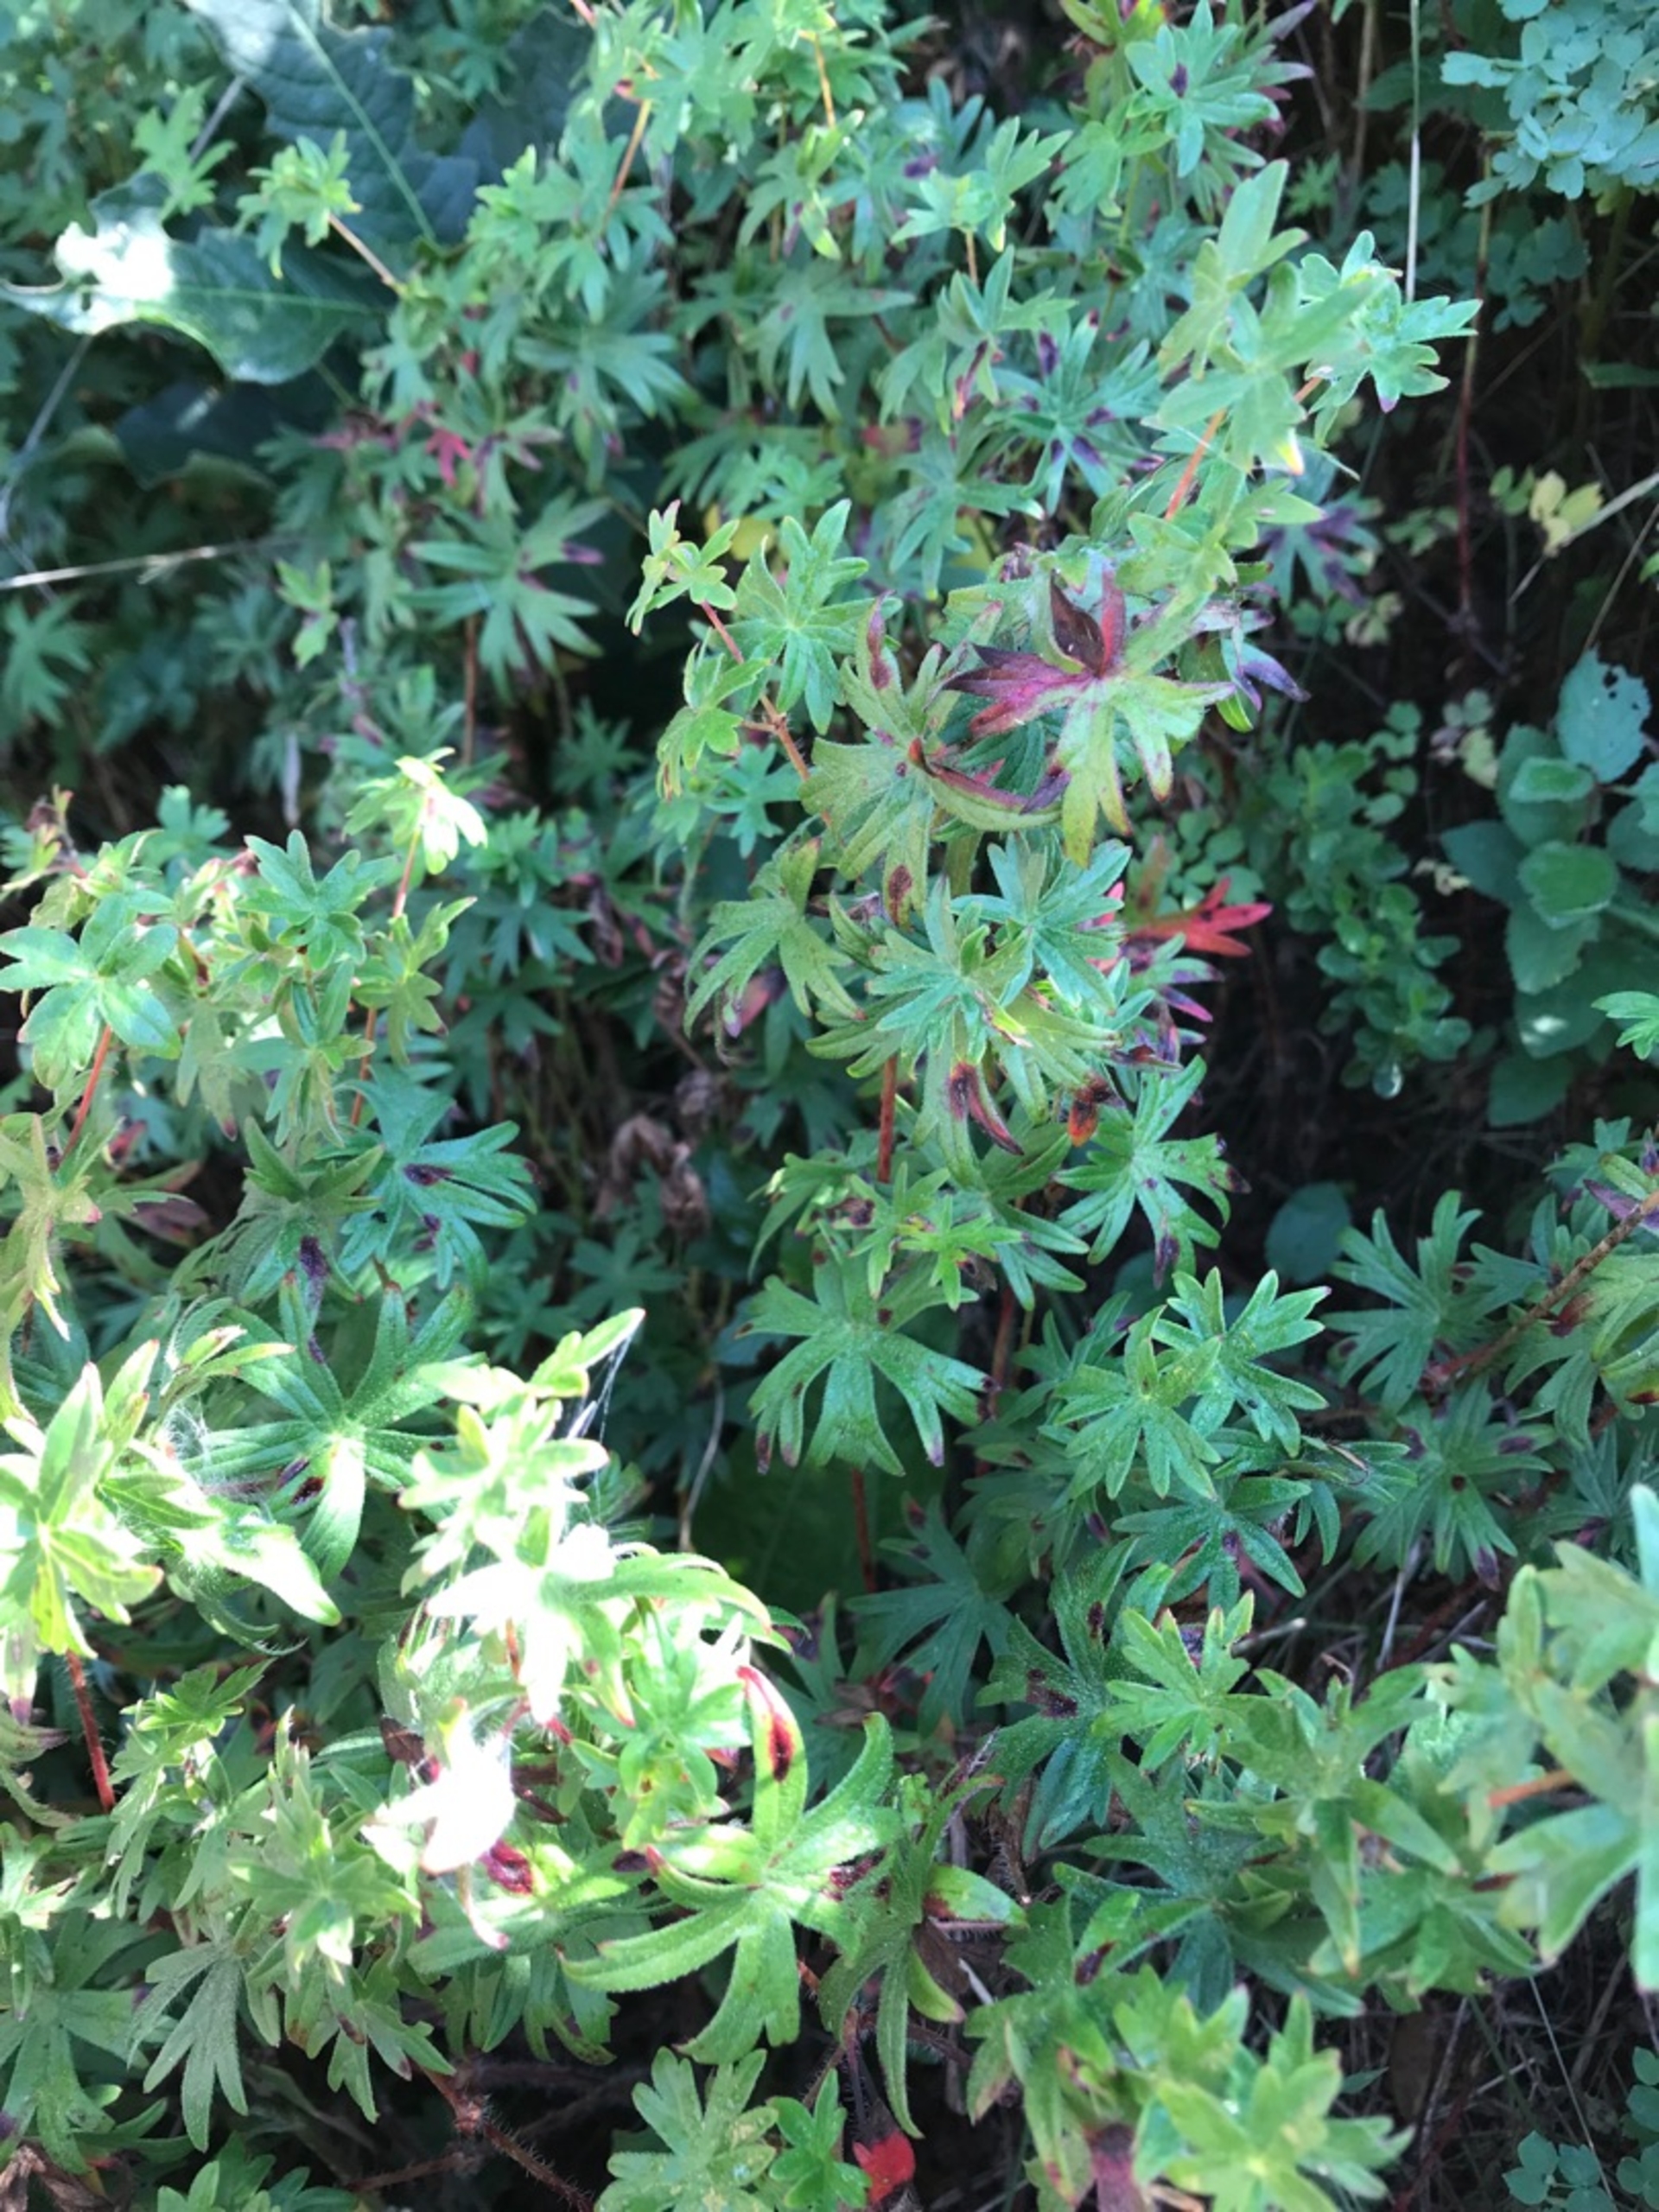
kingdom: Plantae
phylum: Tracheophyta
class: Magnoliopsida
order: Geraniales
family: Geraniaceae
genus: Geranium
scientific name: Geranium sanguineum
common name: Blodrød storkenæb
